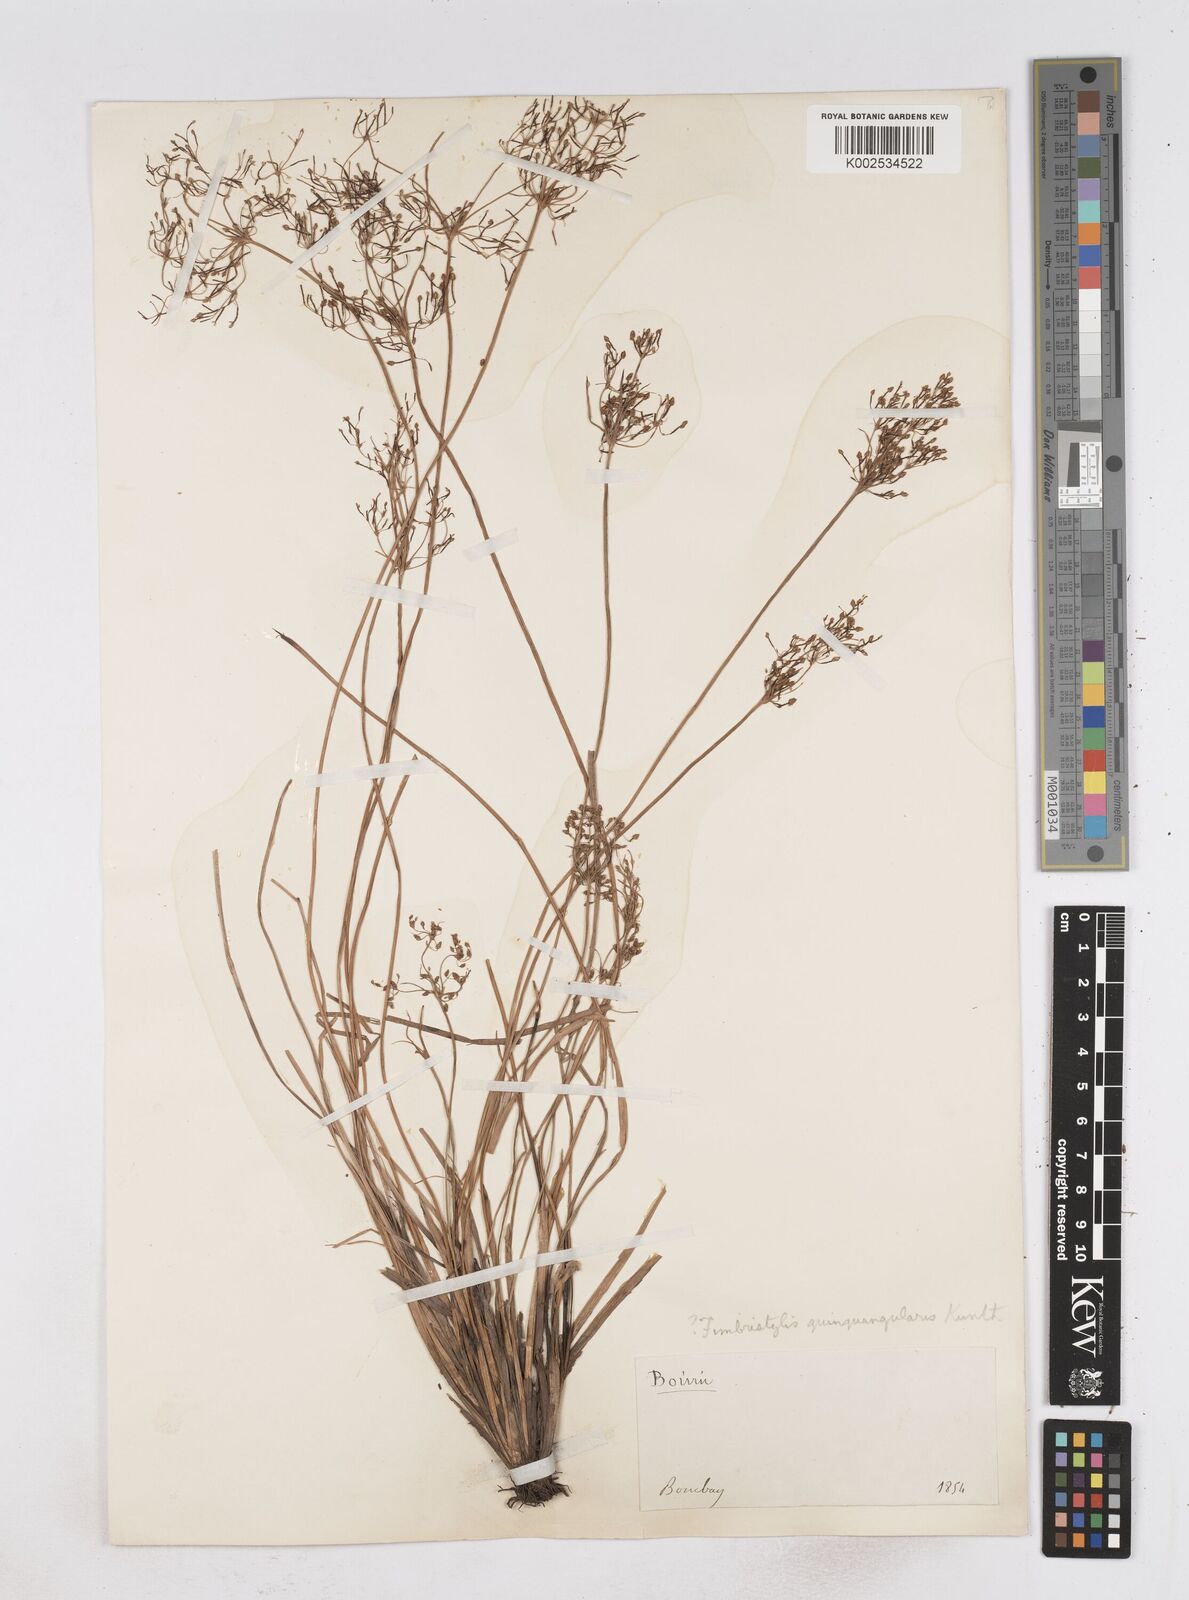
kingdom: Plantae
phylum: Tracheophyta
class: Liliopsida
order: Poales
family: Cyperaceae
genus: Fimbristylis
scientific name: Fimbristylis quinquangularis
